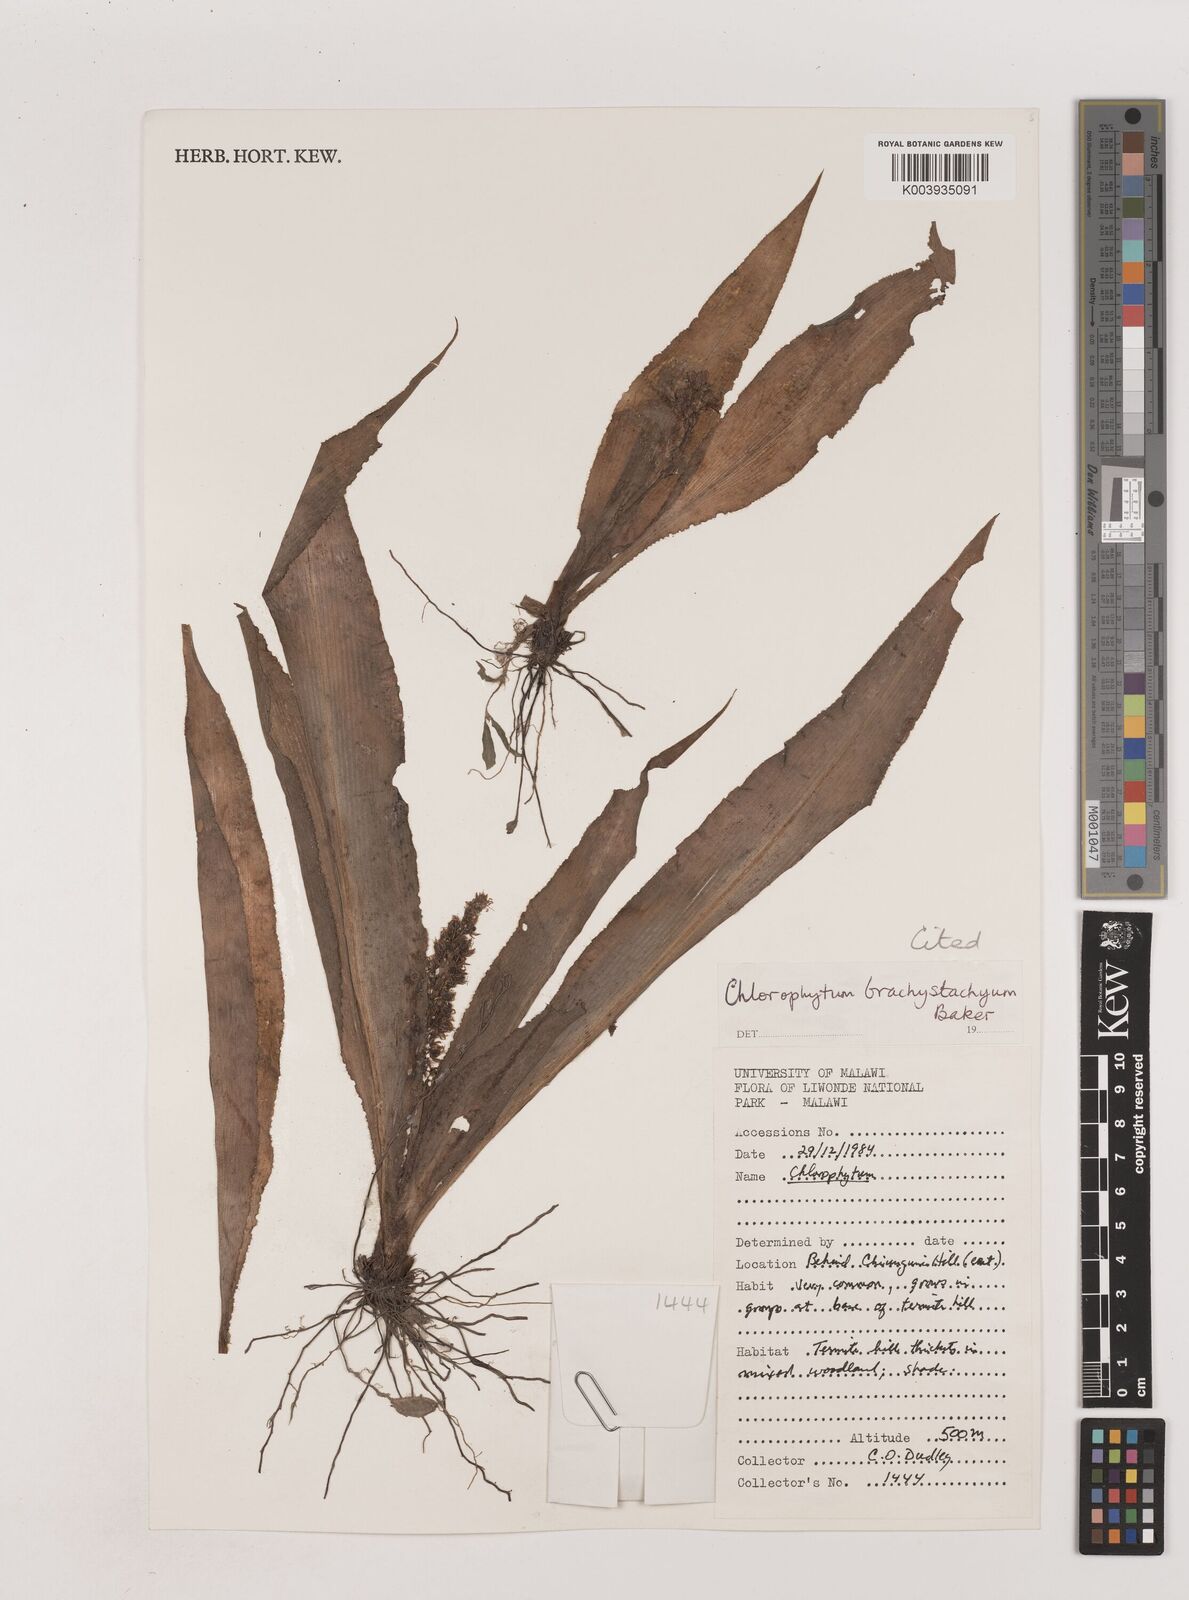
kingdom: Plantae
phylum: Tracheophyta
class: Liliopsida
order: Asparagales
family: Asparagaceae
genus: Chlorophytum
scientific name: Chlorophytum brachystachyum
